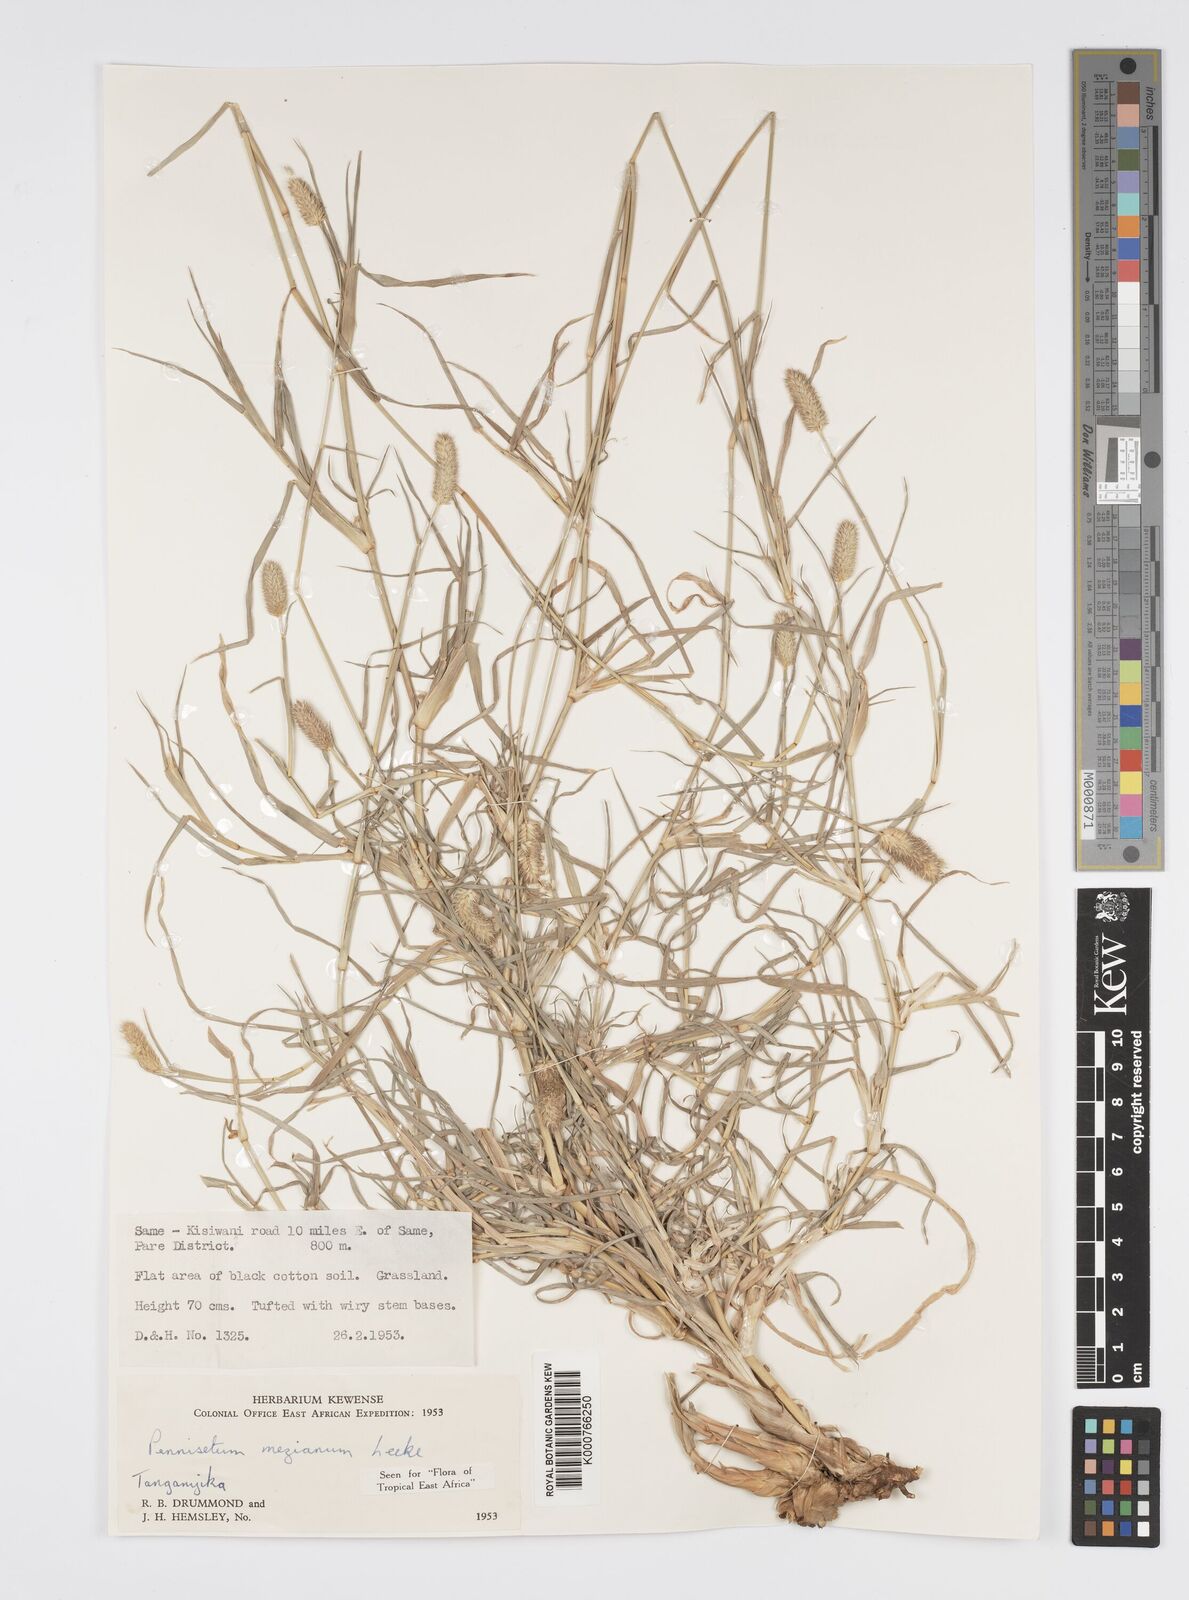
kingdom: Plantae
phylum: Tracheophyta
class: Liliopsida
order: Poales
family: Poaceae
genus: Cenchrus
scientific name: Cenchrus mezianus
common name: Bamboo grass
